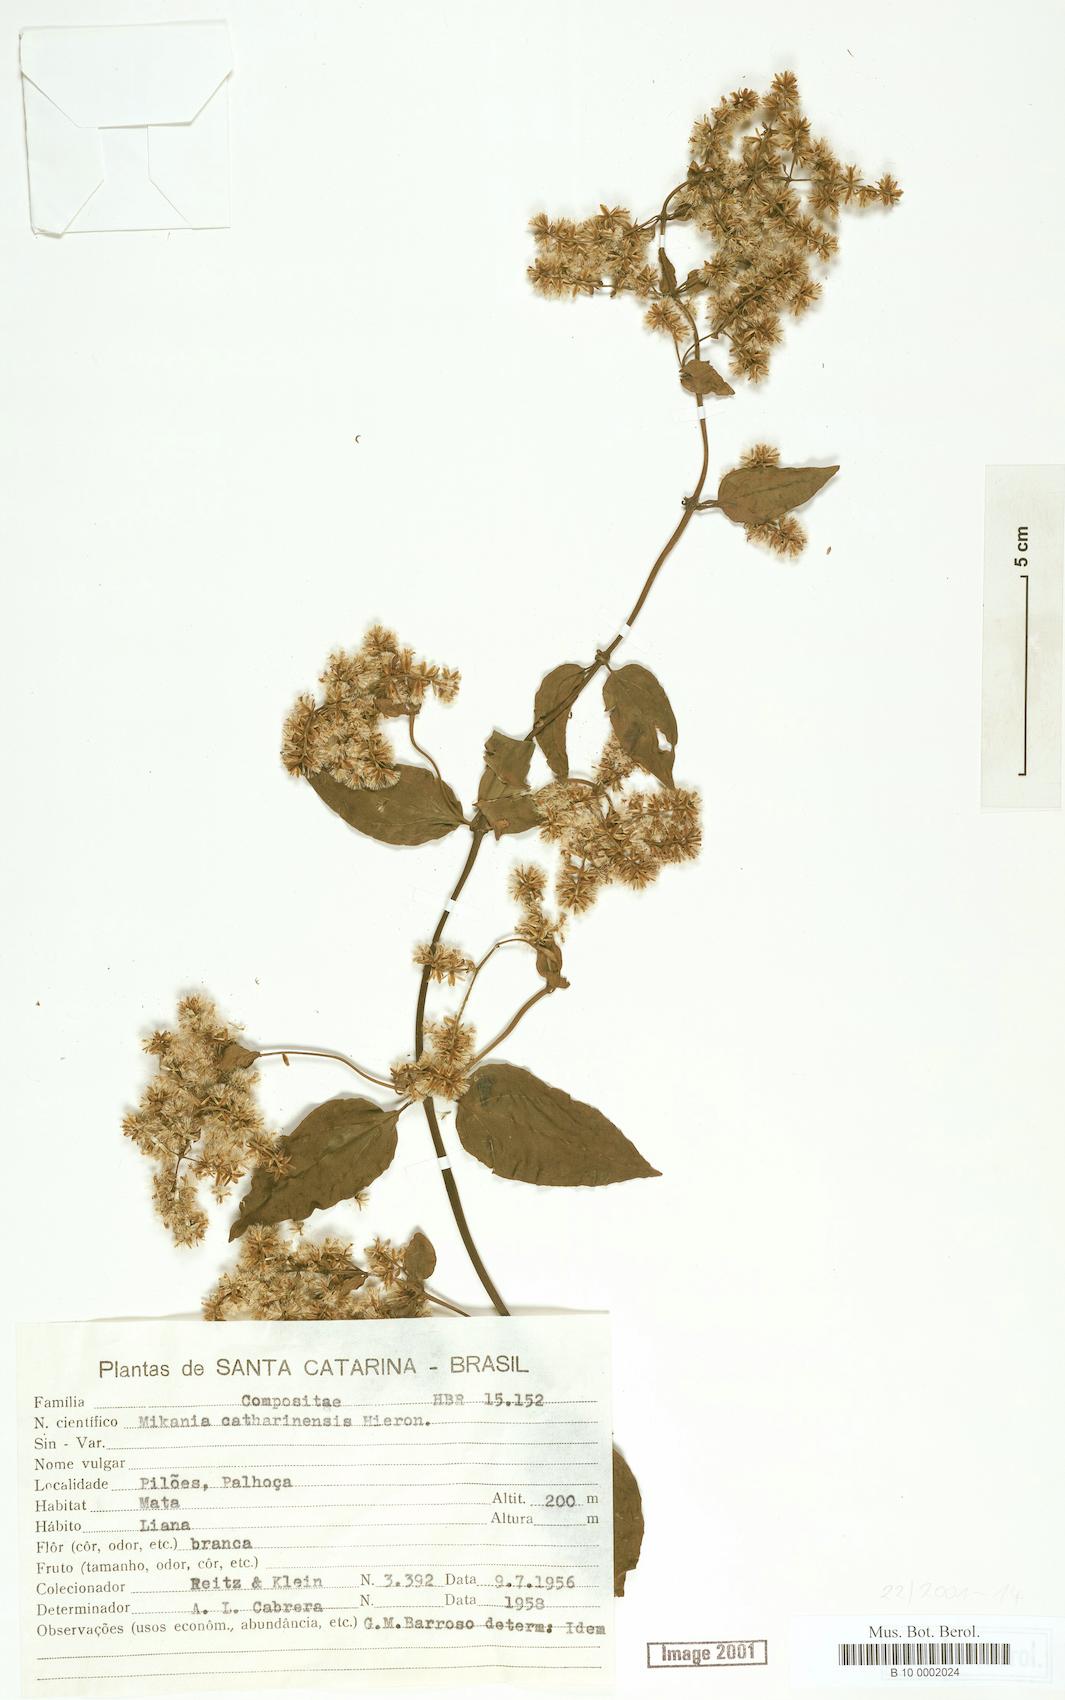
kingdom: Plantae
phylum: Tracheophyta
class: Magnoliopsida
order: Asterales
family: Asteraceae
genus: Mikania
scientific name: Mikania lundiana
